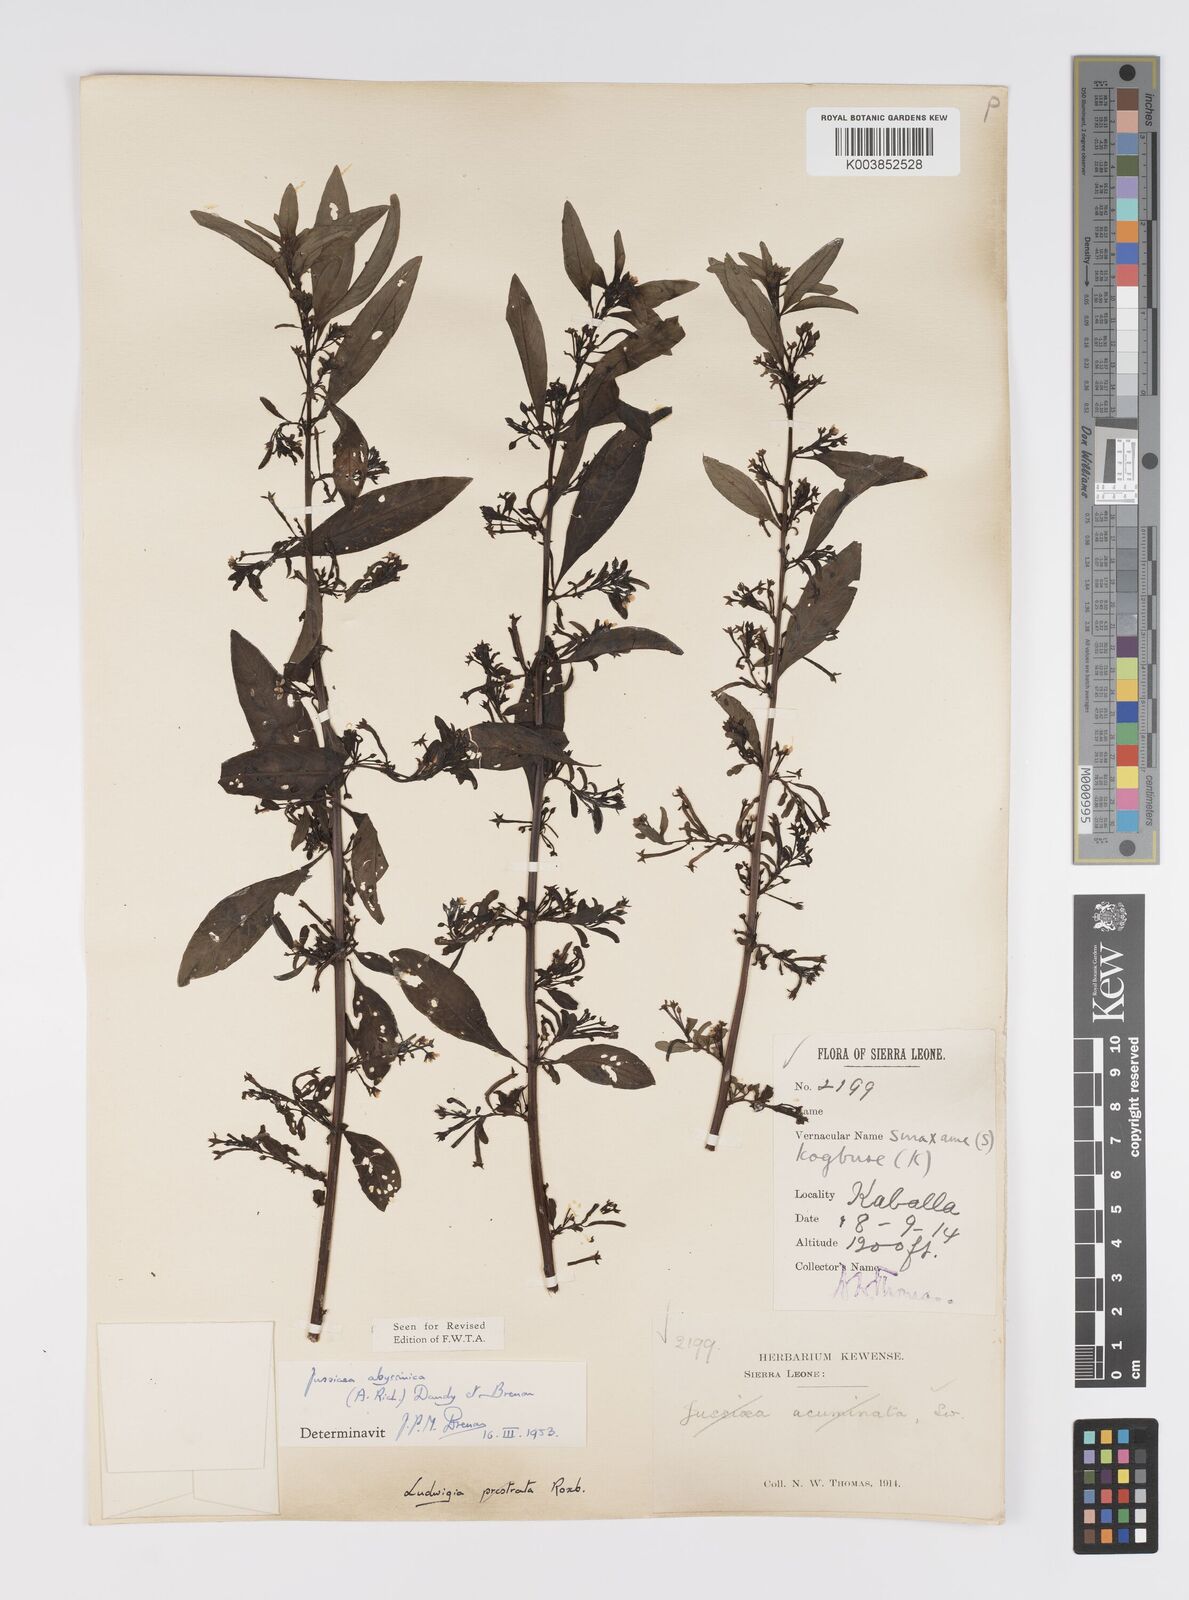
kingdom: Plantae
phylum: Tracheophyta
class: Magnoliopsida
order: Myrtales
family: Onagraceae
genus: Ludwigia
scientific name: Ludwigia abyssinica
